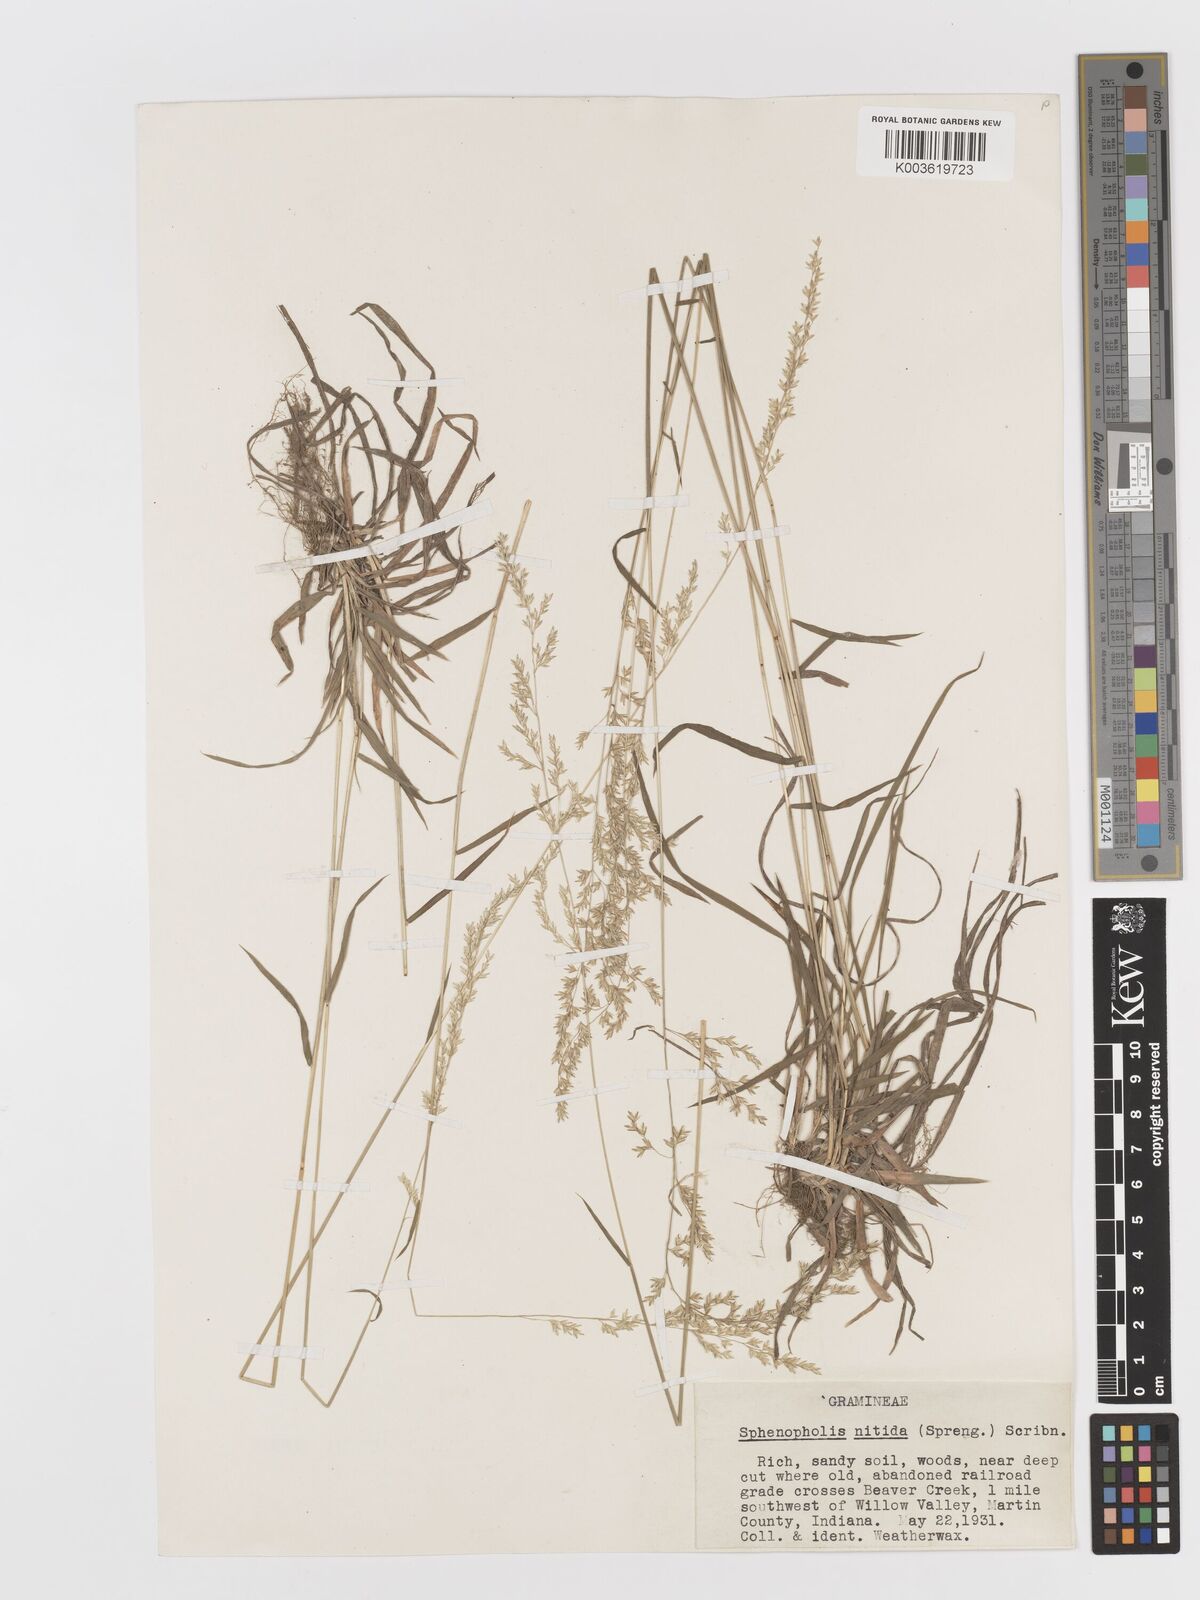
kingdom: Plantae
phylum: Tracheophyta
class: Liliopsida
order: Poales
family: Poaceae
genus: Sphenopholis
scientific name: Sphenopholis nitida
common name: Shiny wedgegrass
